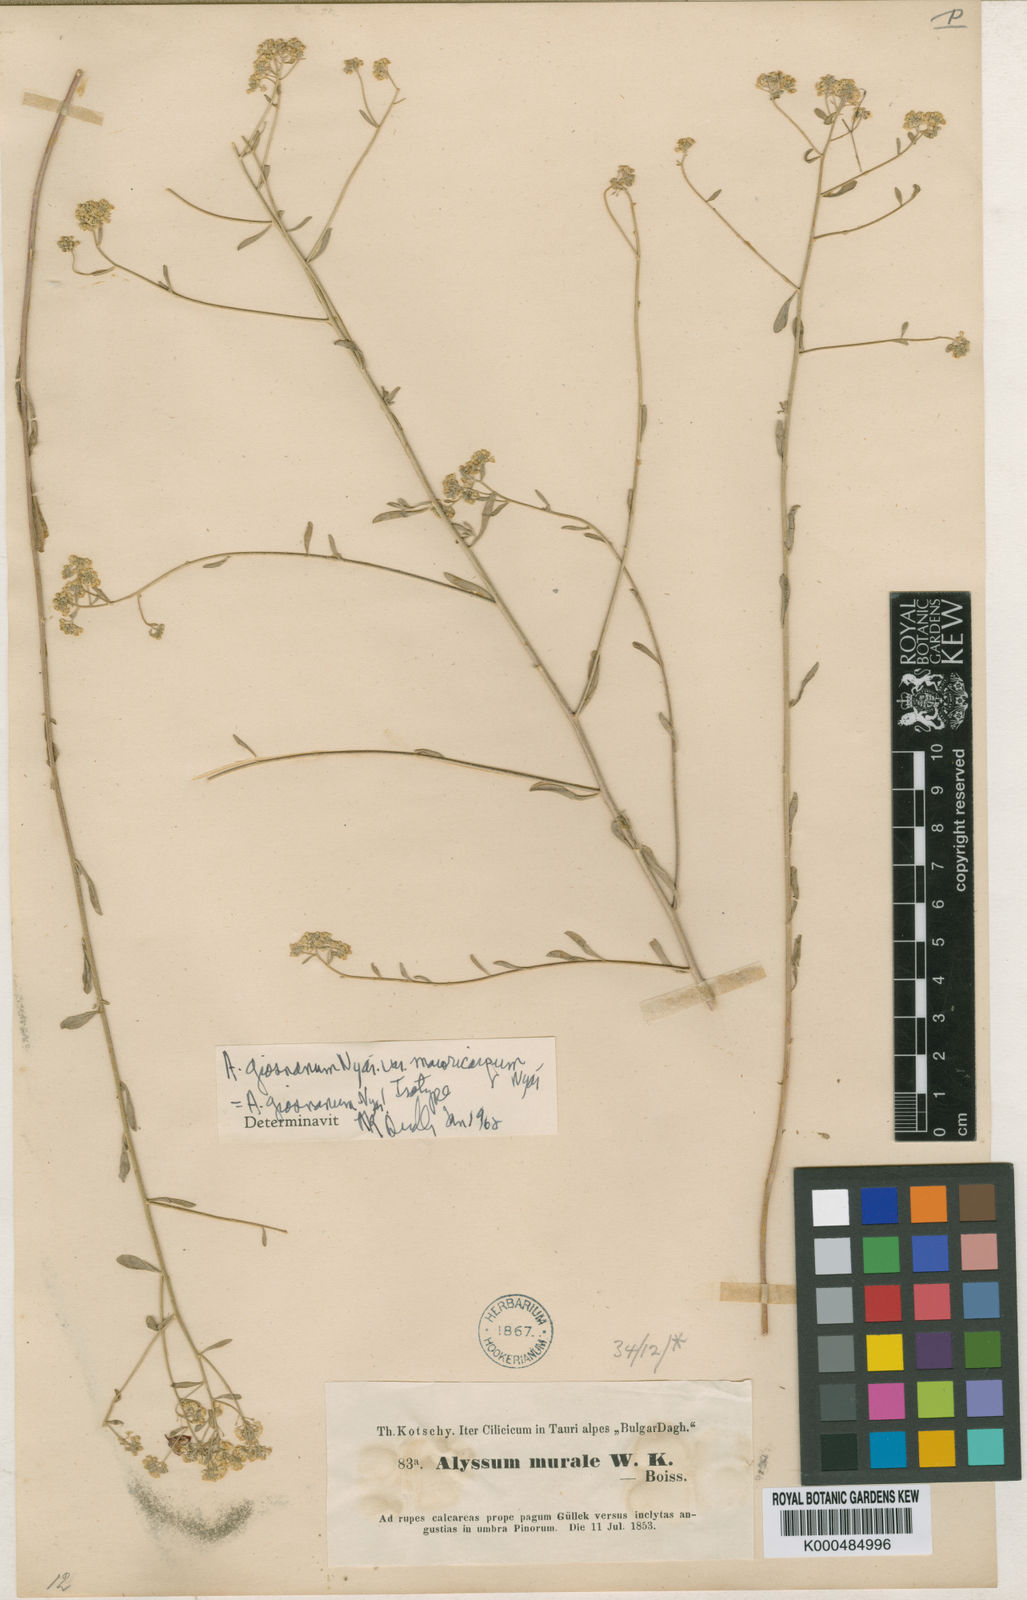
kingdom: Plantae
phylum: Tracheophyta
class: Magnoliopsida
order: Brassicales
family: Brassicaceae
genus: Odontarrhena
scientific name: Odontarrhena giosnana
